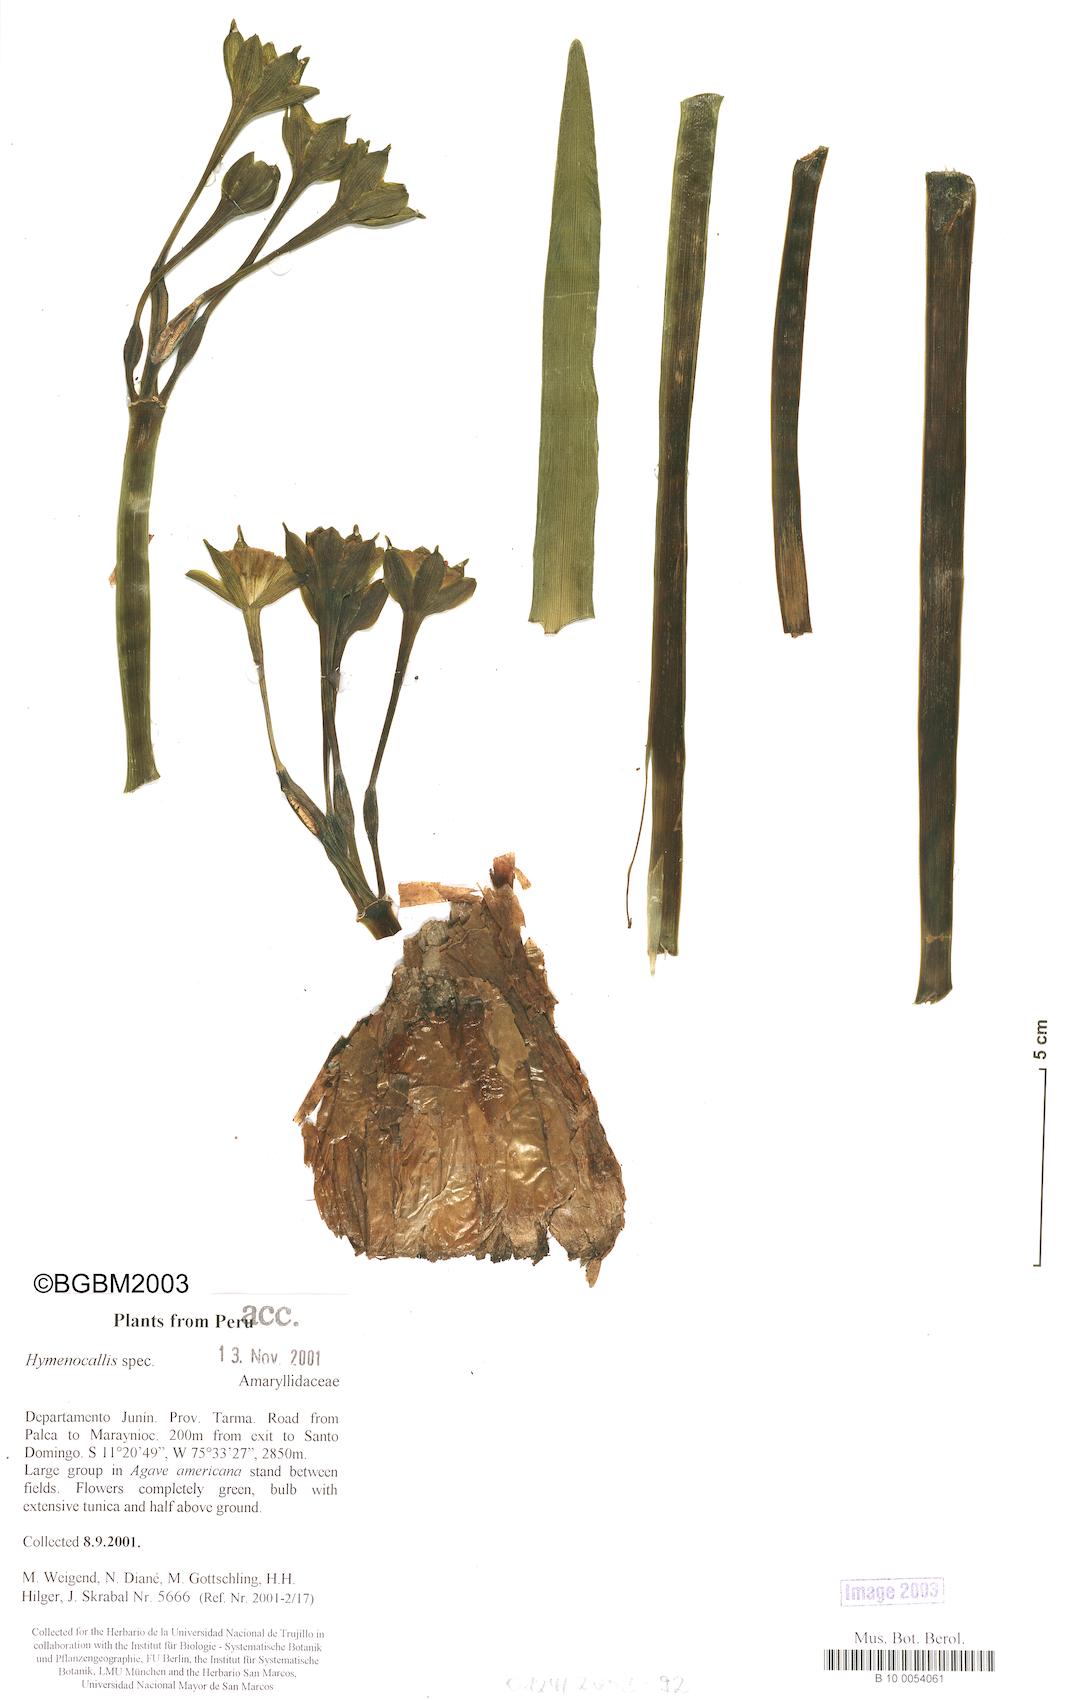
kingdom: Plantae
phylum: Tracheophyta
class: Liliopsida
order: Asparagales
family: Amaryllidaceae
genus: Paramongaia
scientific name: Paramongaia viridiflora
